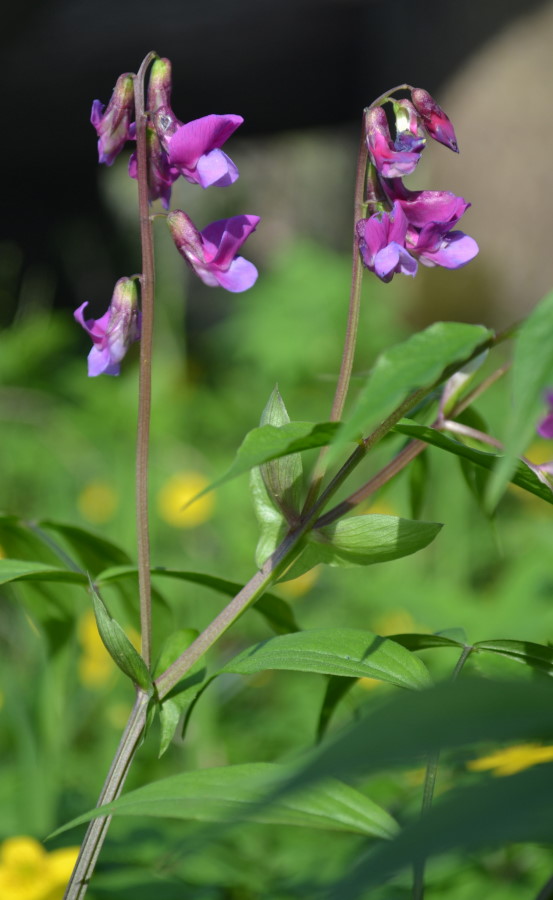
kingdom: Plantae
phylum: Tracheophyta
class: Magnoliopsida
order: Fabales
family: Fabaceae
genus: Lathyrus
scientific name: Lathyrus vernus
